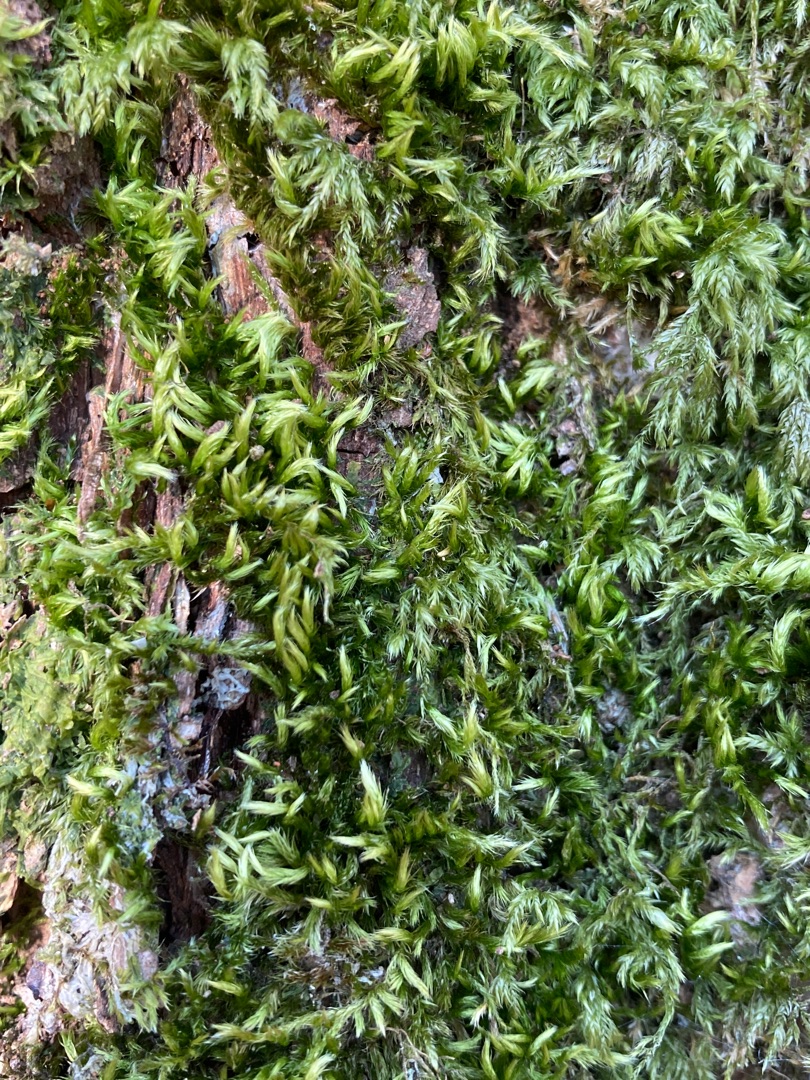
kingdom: Plantae
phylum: Bryophyta
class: Bryopsida
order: Hypnales
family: Brachytheciaceae
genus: Homalothecium
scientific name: Homalothecium sericeum
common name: Krybende silkemos
